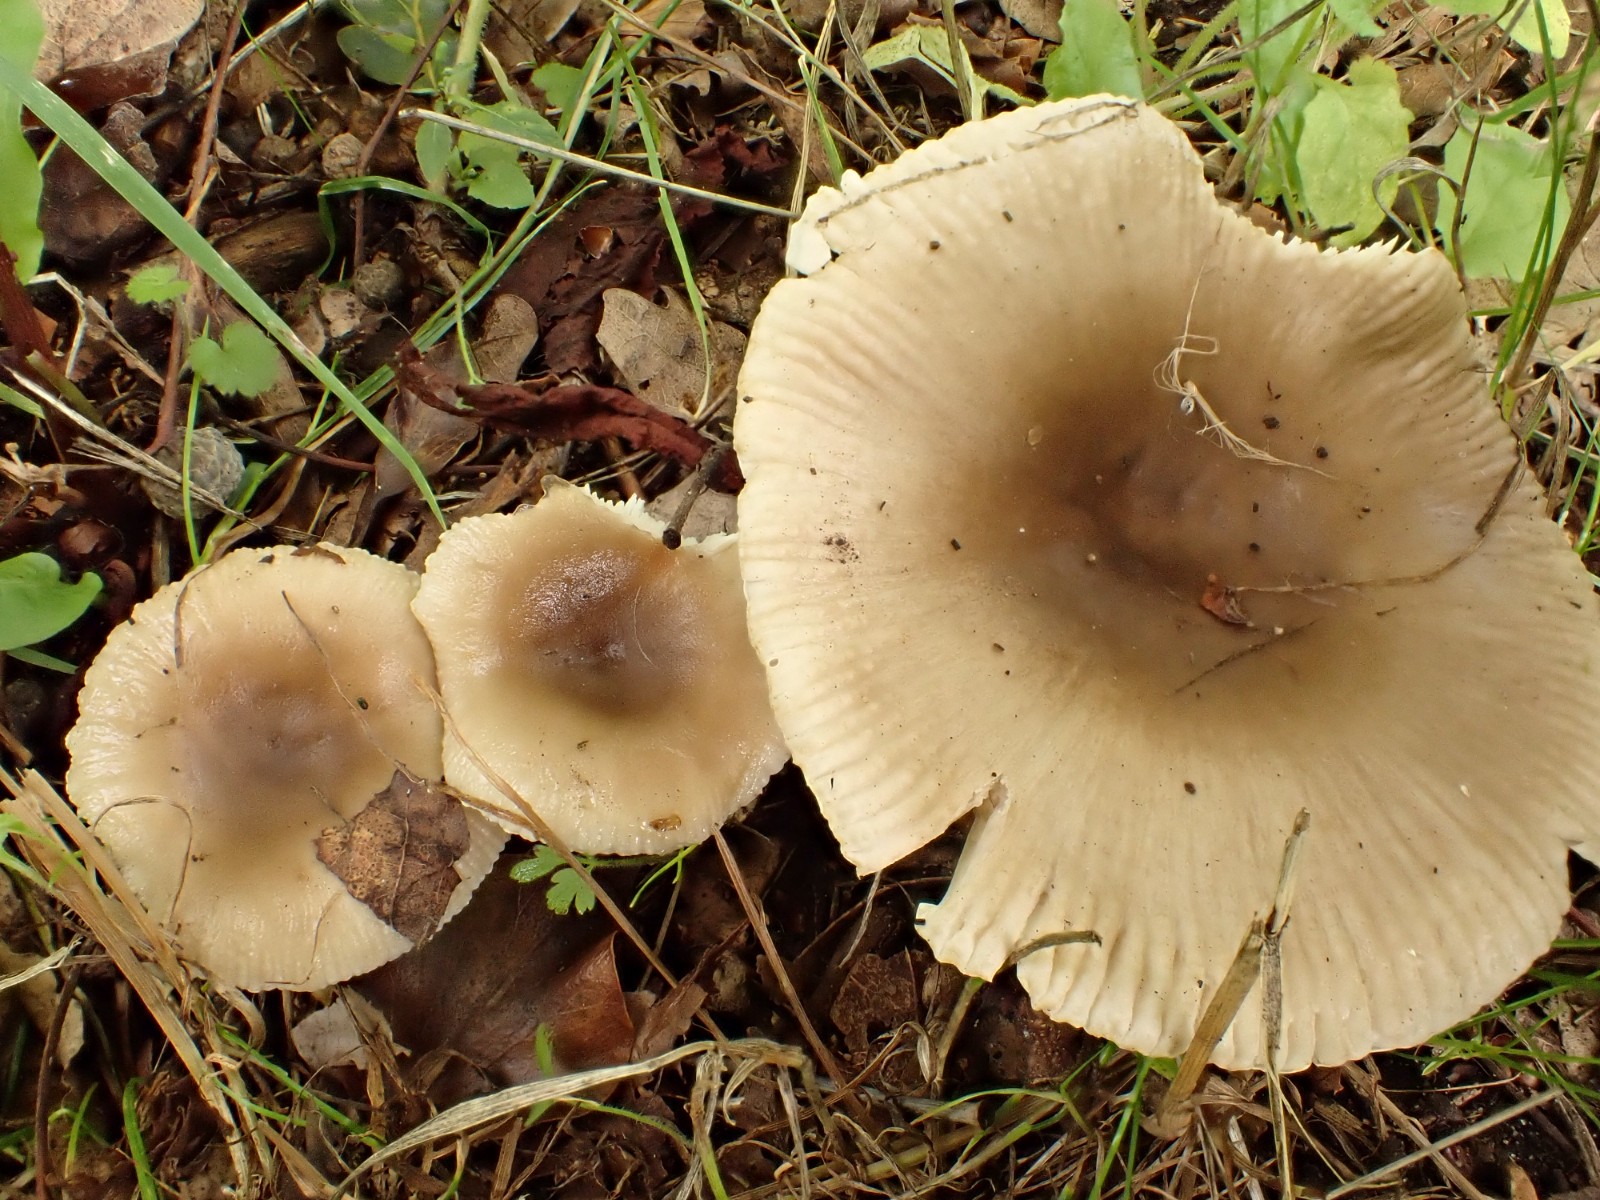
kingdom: Fungi
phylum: Basidiomycota
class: Agaricomycetes
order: Russulales
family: Russulaceae
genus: Russula
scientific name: Russula amoenolens
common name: skarp kam-skørhat
